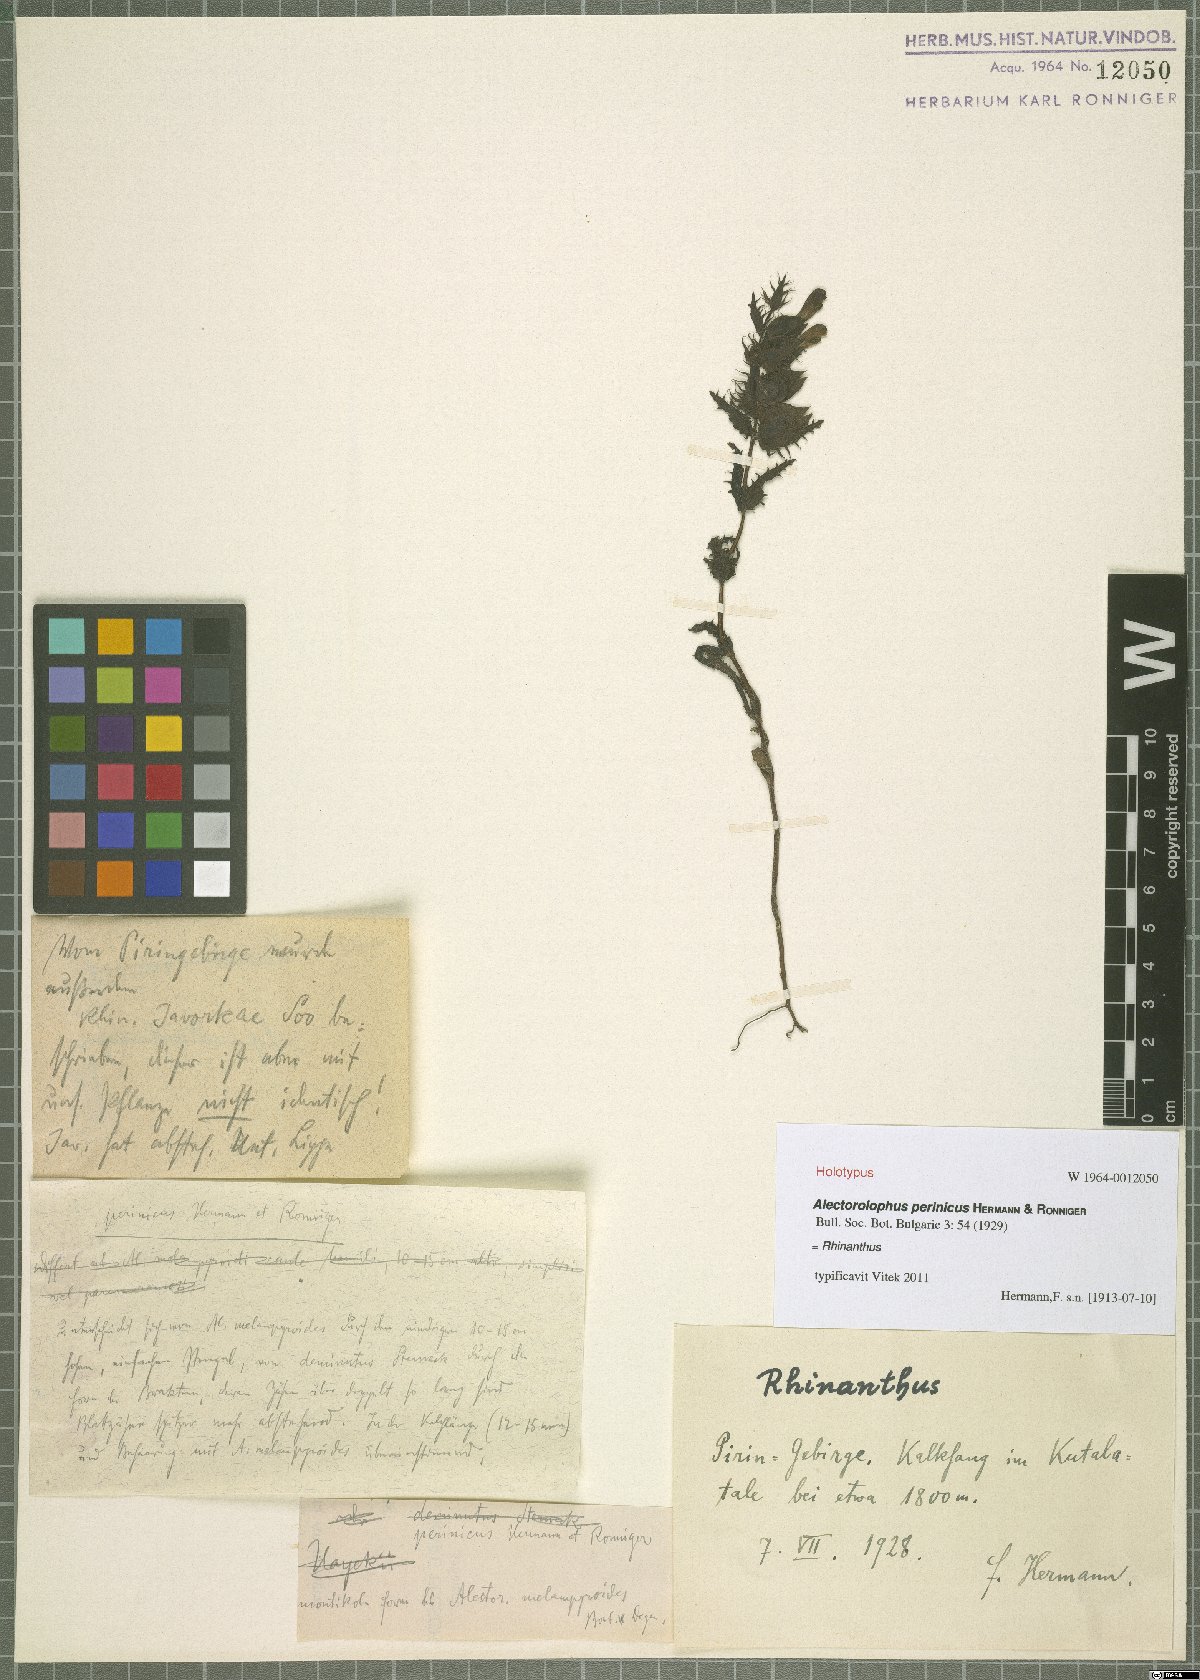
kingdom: Plantae
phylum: Tracheophyta
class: Magnoliopsida
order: Lamiales
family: Orobanchaceae
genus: Rhinanthus
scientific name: Rhinanthus
